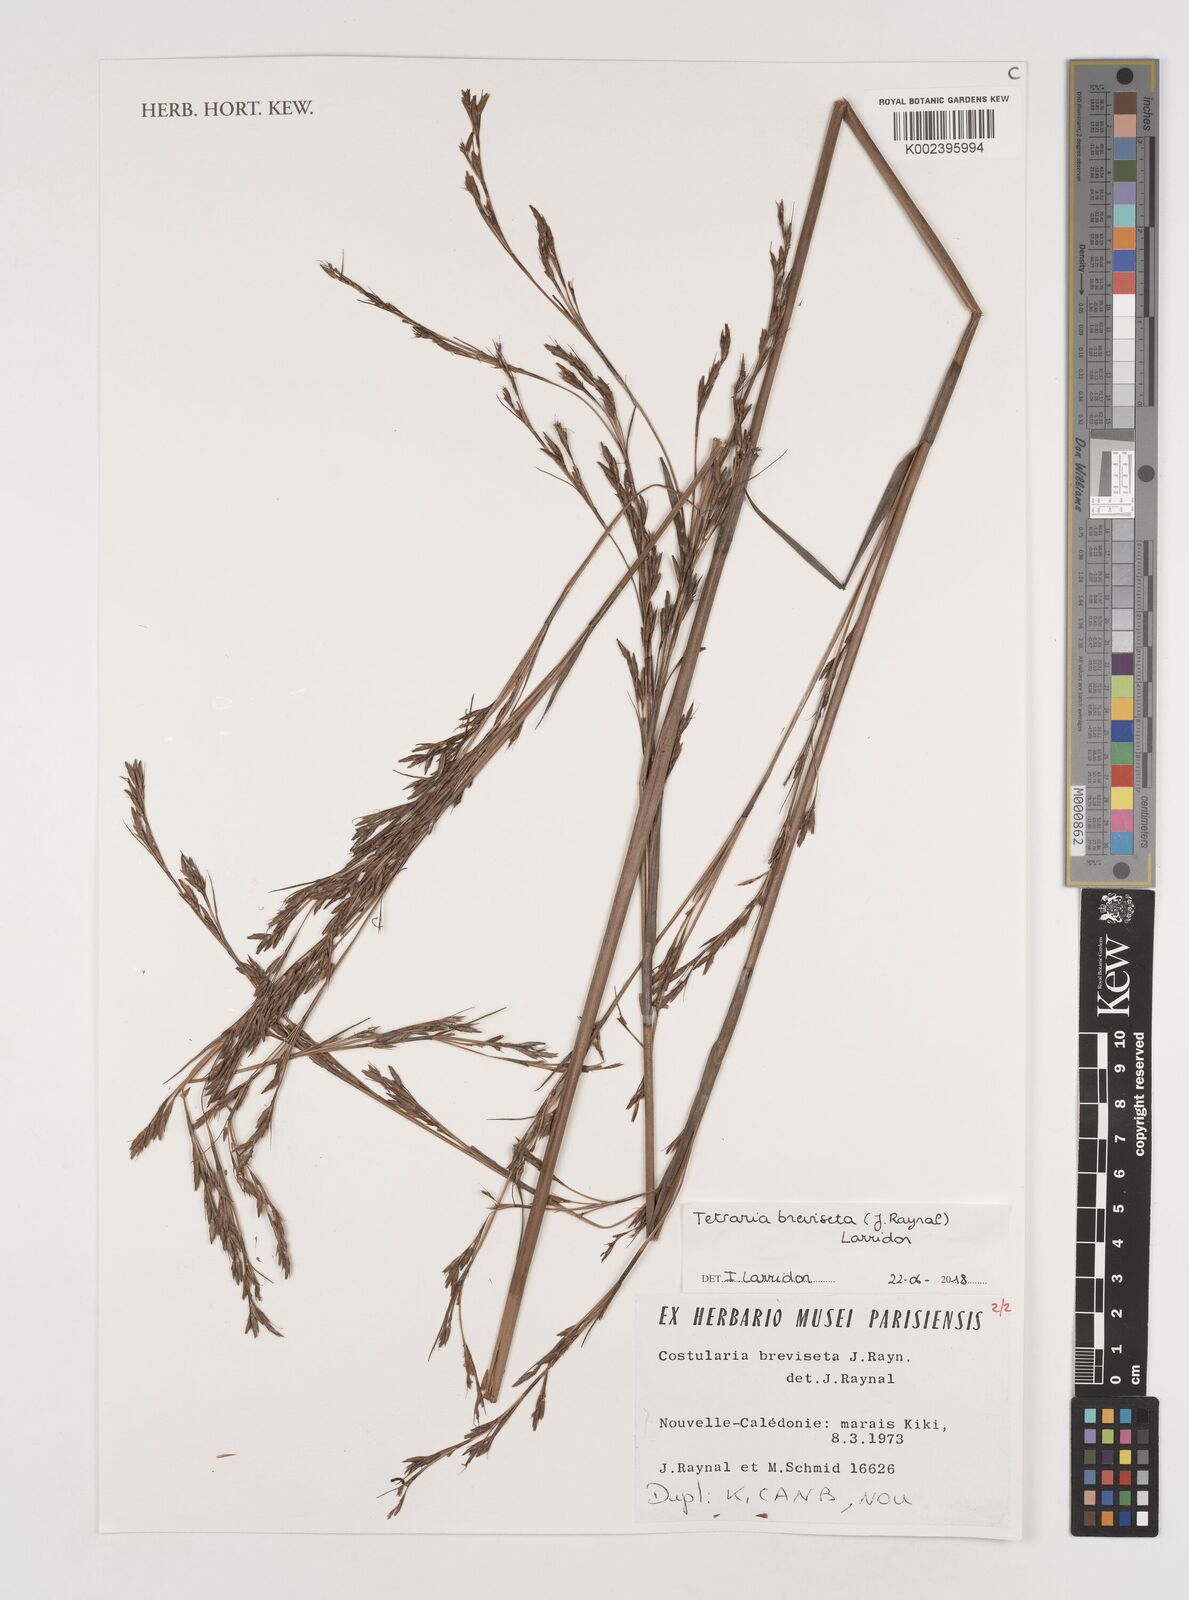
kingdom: Plantae
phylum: Tracheophyta
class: Liliopsida
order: Poales
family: Cyperaceae
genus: Tetraria
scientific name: Tetraria breviseta
